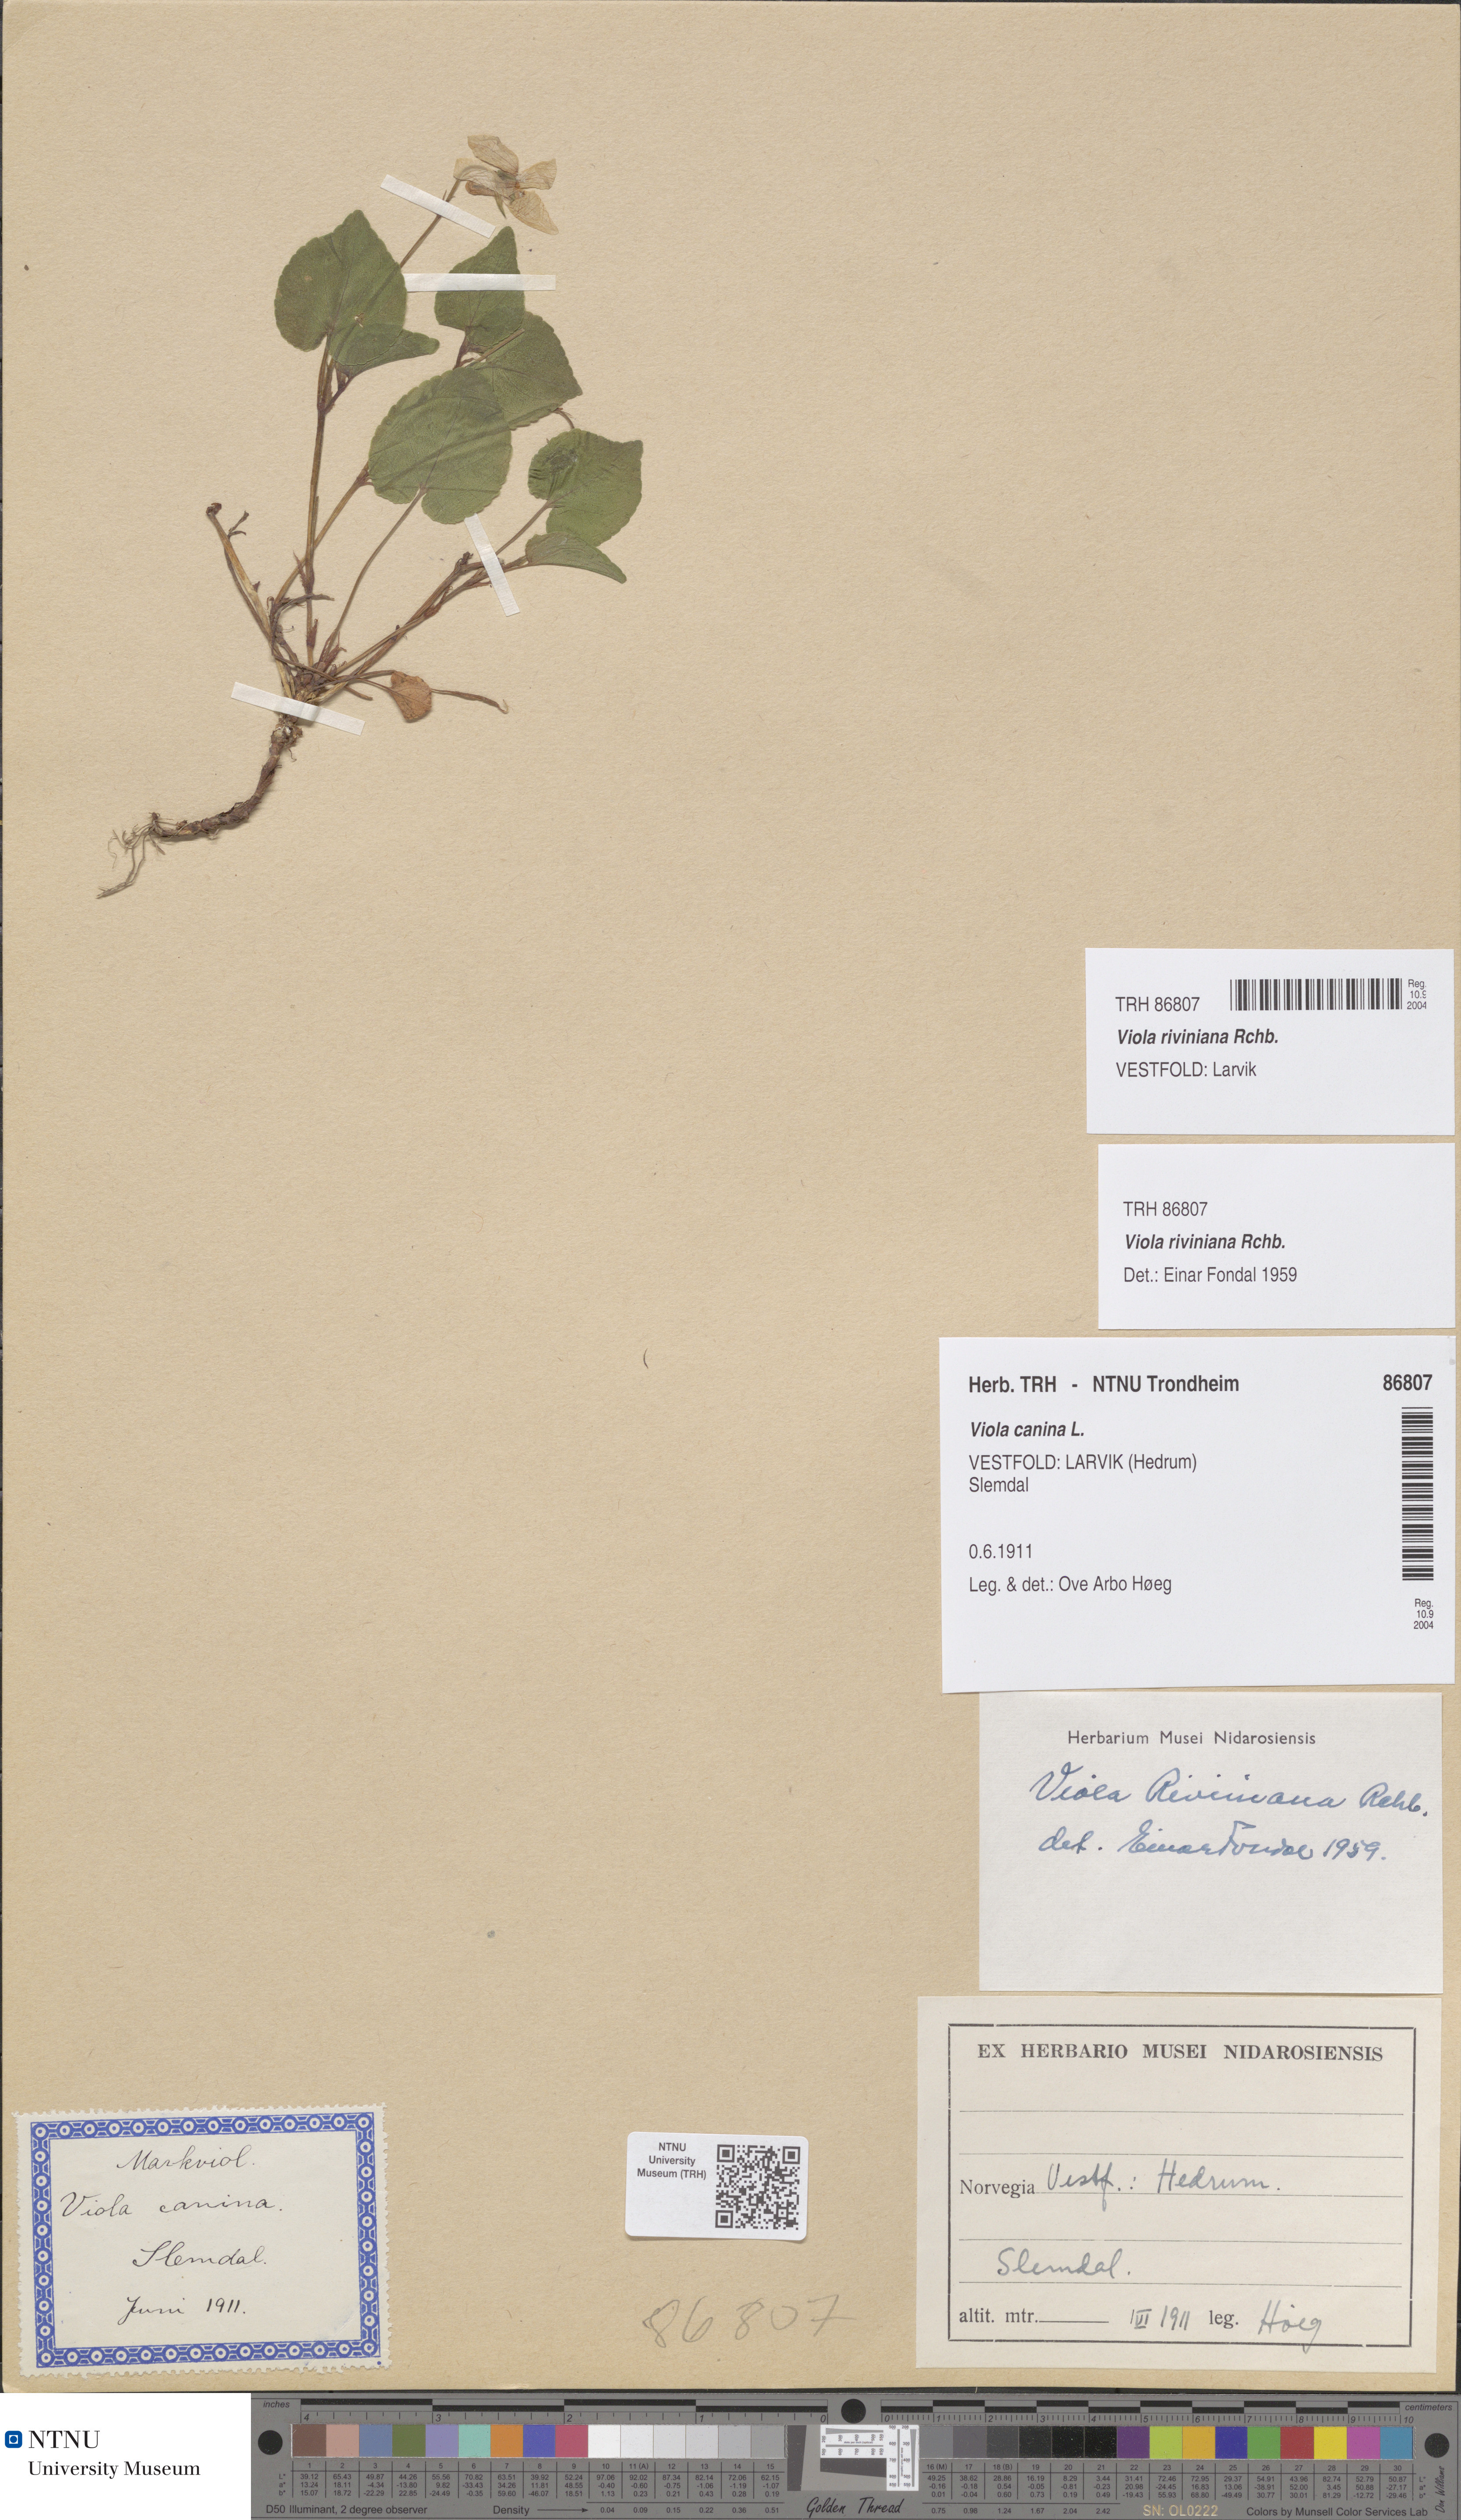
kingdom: Plantae
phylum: Tracheophyta
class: Magnoliopsida
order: Malpighiales
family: Violaceae
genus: Viola
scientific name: Viola riviniana
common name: Common dog-violet
